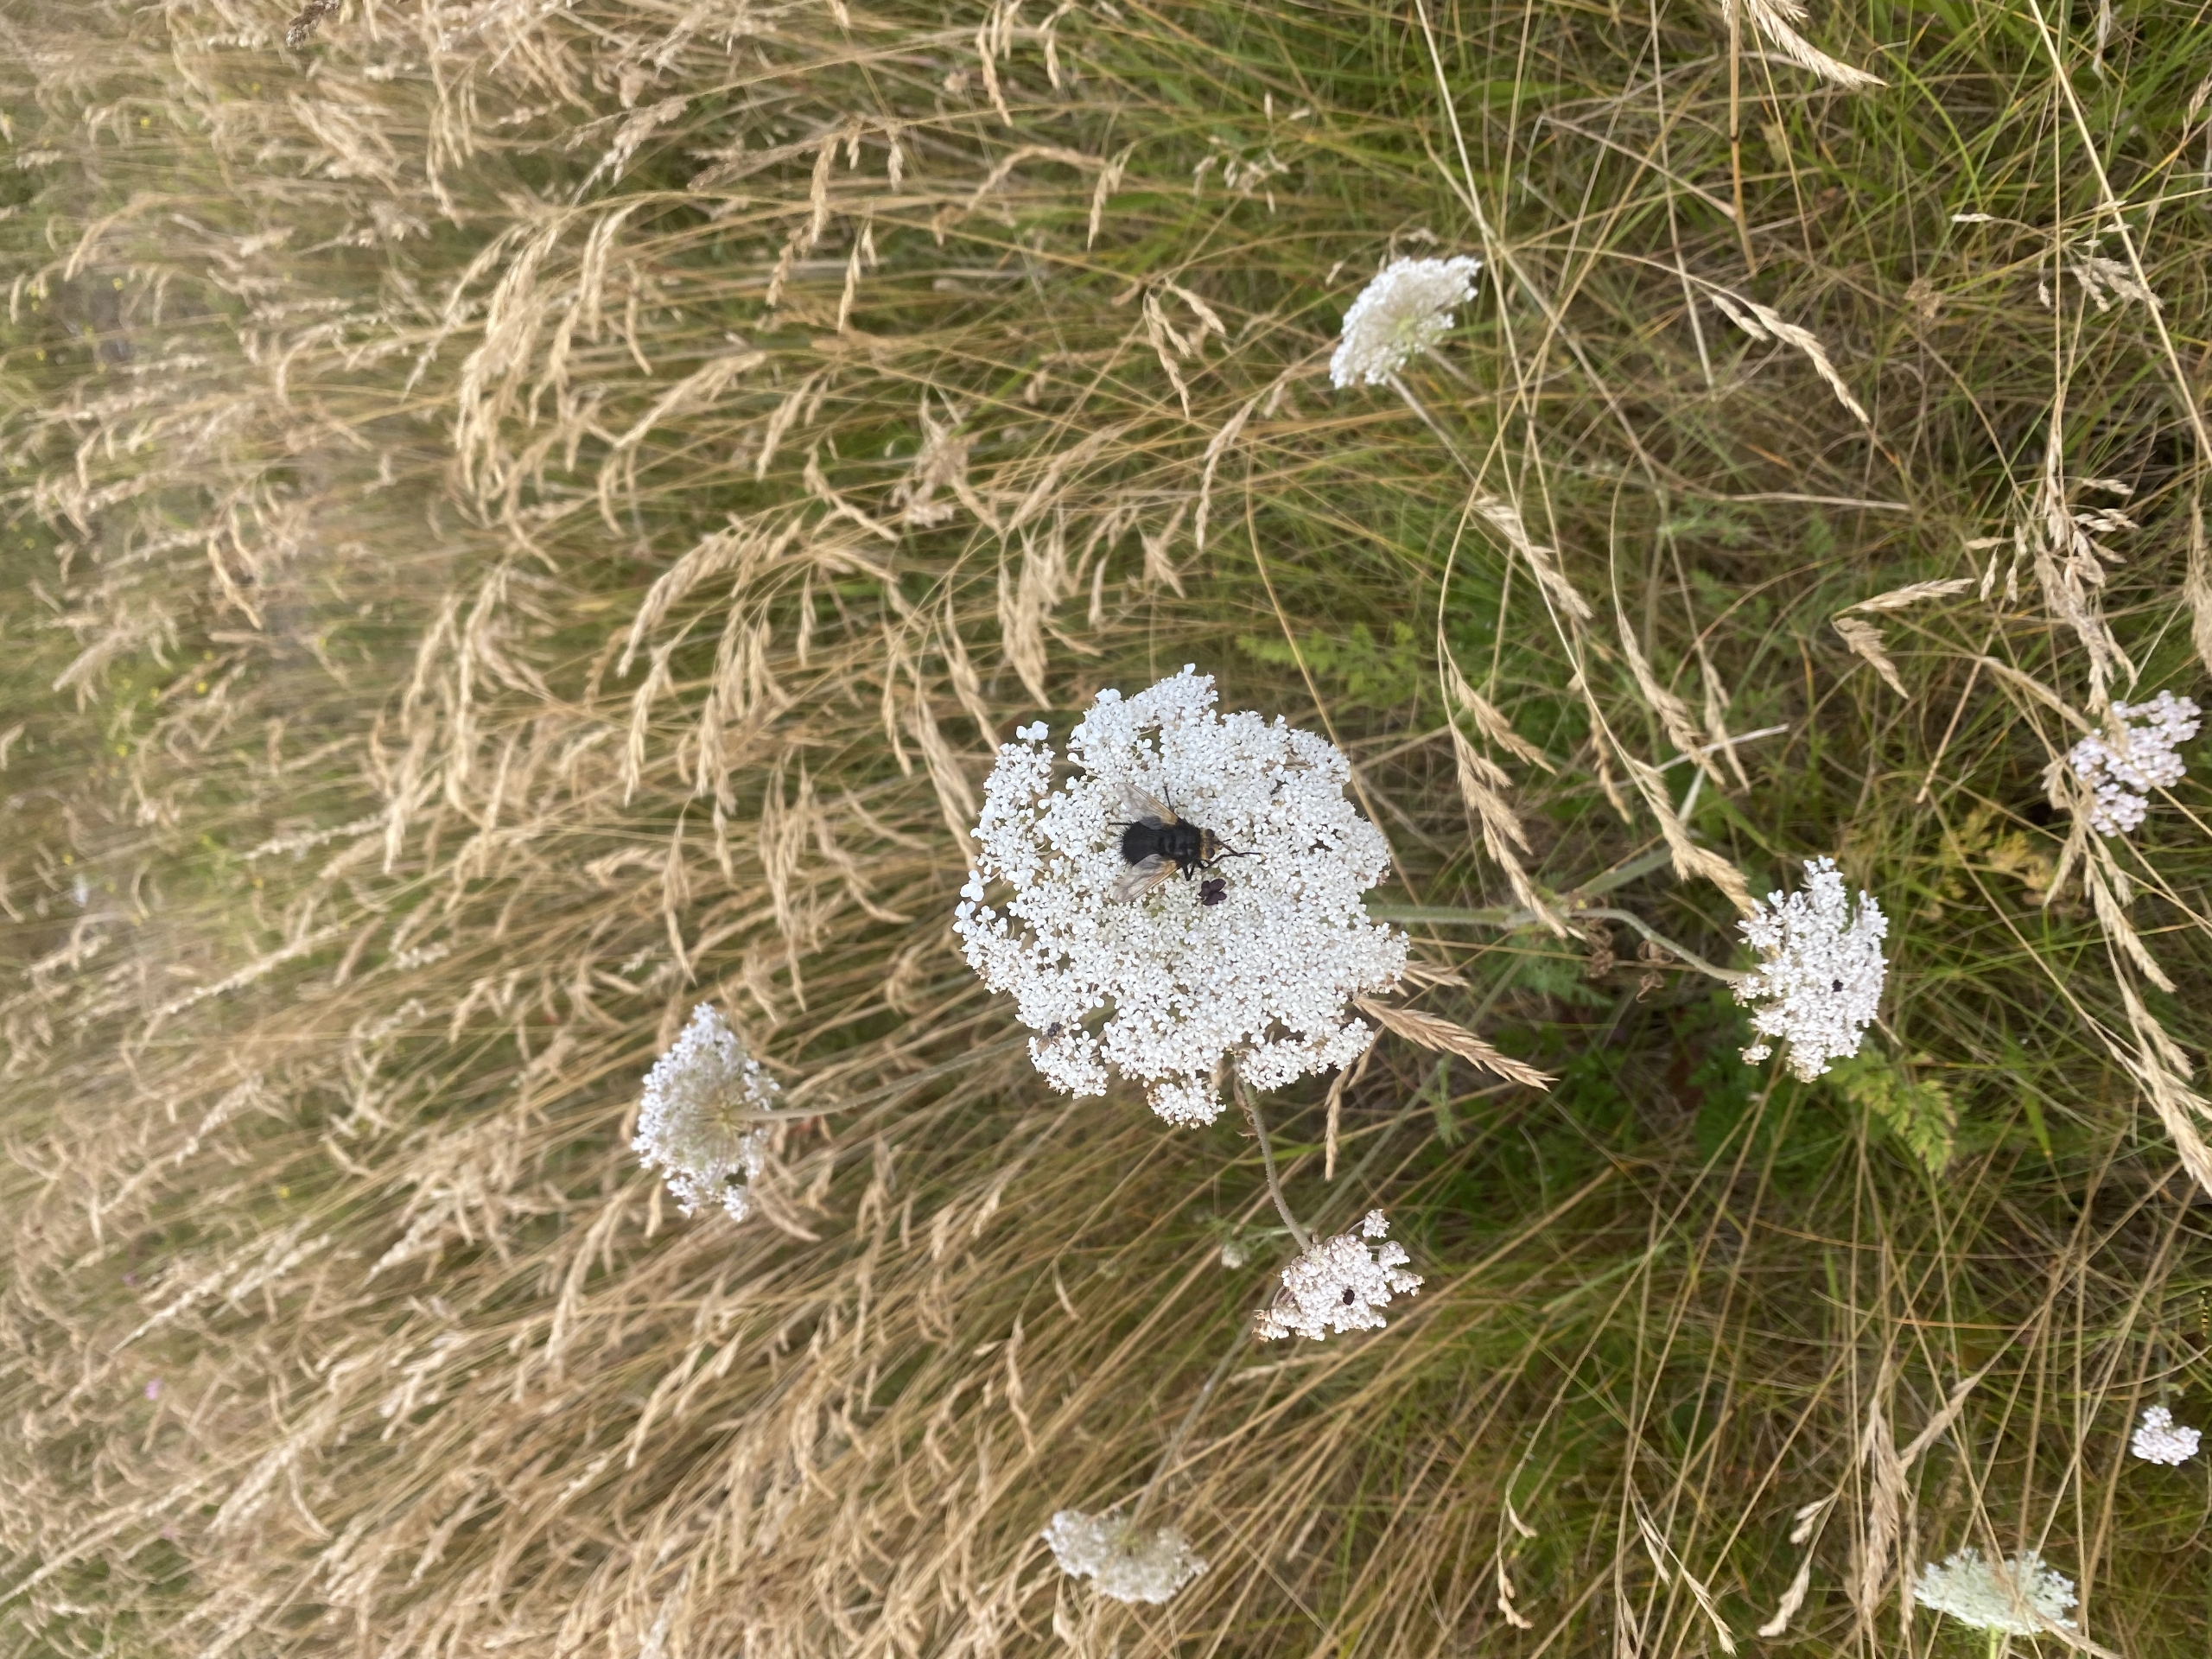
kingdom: Animalia
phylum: Arthropoda
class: Insecta
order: Diptera
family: Tachinidae
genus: Tachina
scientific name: Tachina grossa
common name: Kæmpefluen Harald
